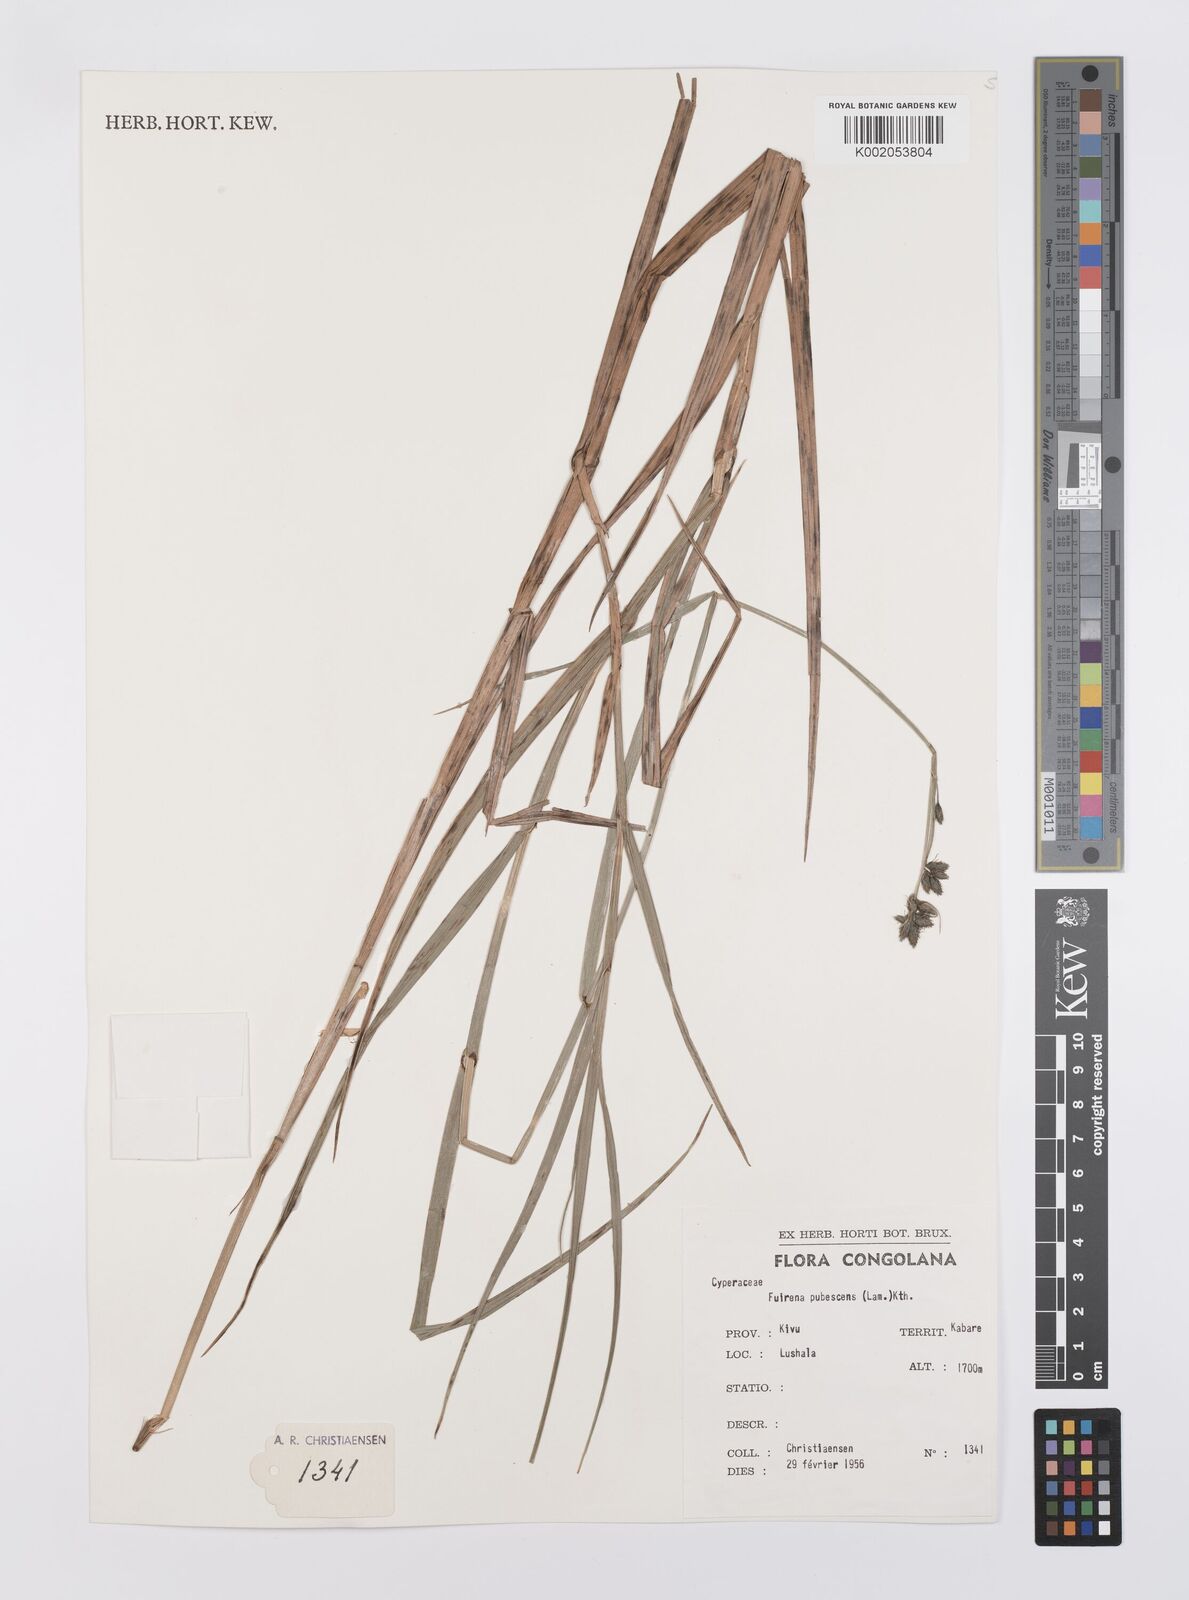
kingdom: Plantae
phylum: Tracheophyta
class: Liliopsida
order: Poales
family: Cyperaceae
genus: Fuirena
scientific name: Fuirena pubescens
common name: Hairy sedge
